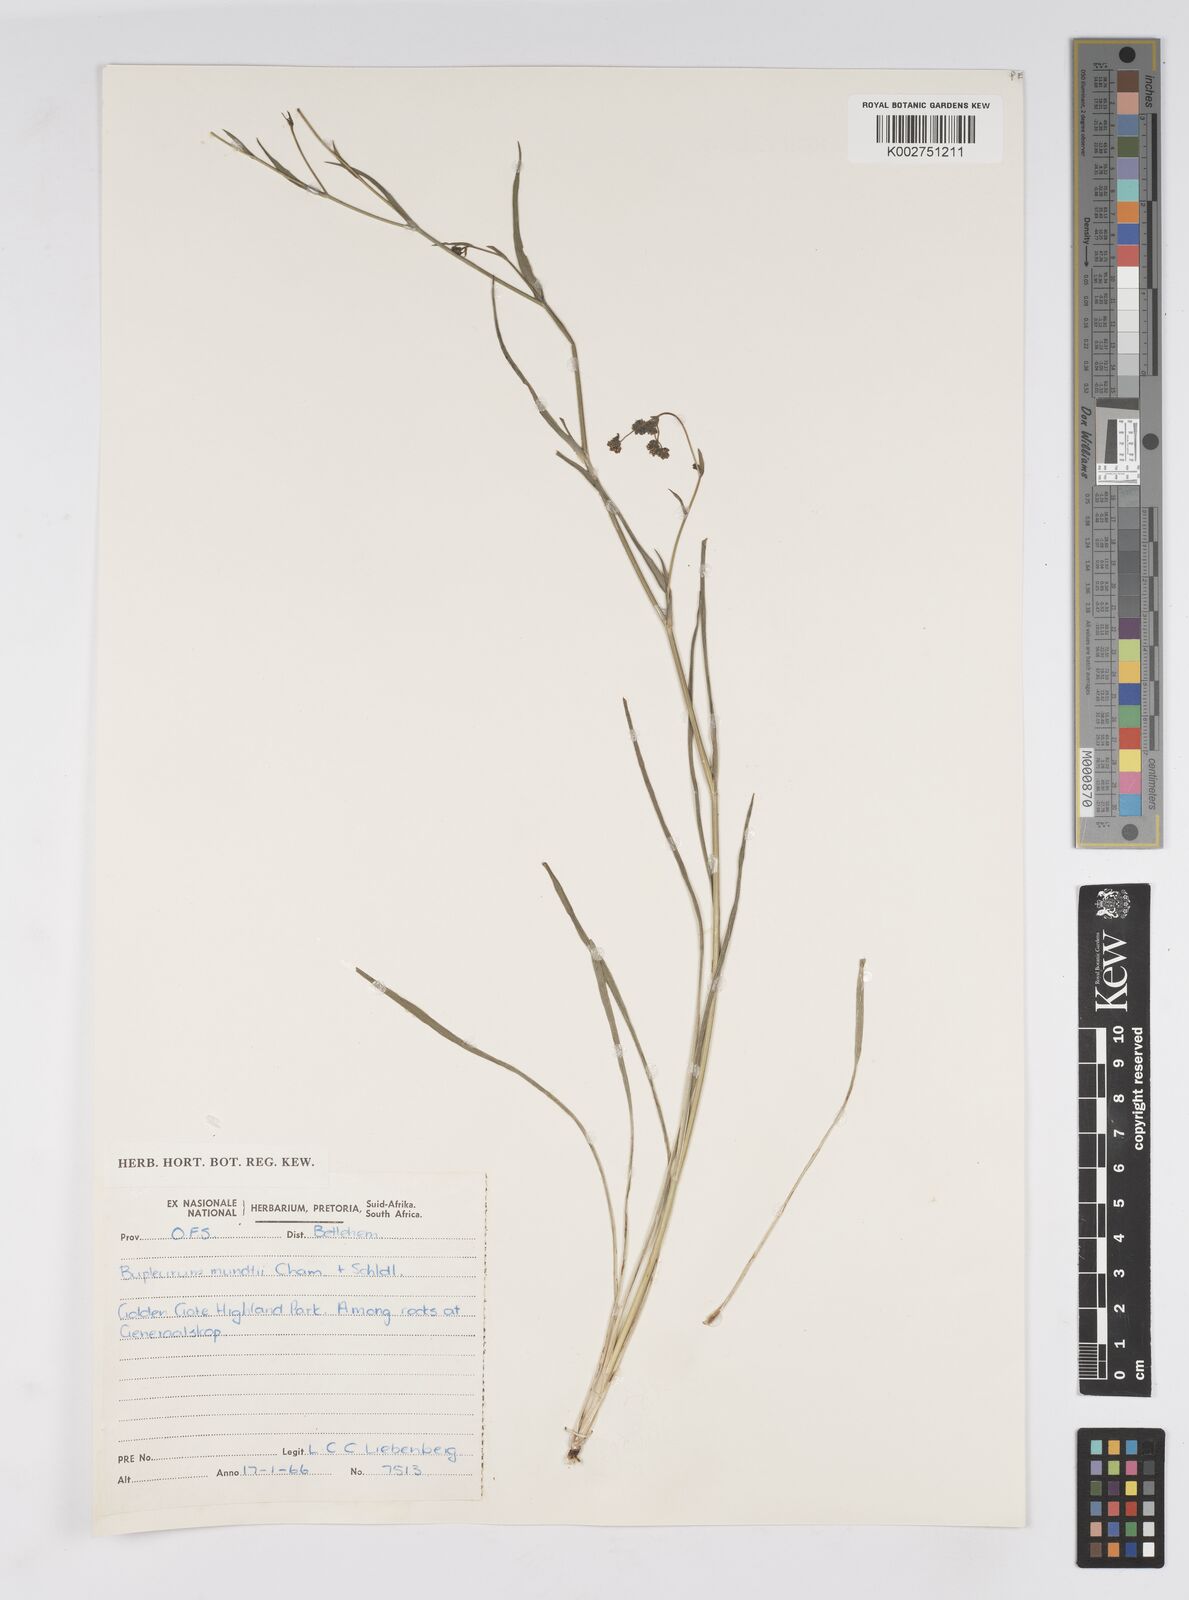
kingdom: Plantae
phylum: Tracheophyta
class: Magnoliopsida
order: Apiales
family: Apiaceae
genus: Bupleurum
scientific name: Bupleurum mundii
